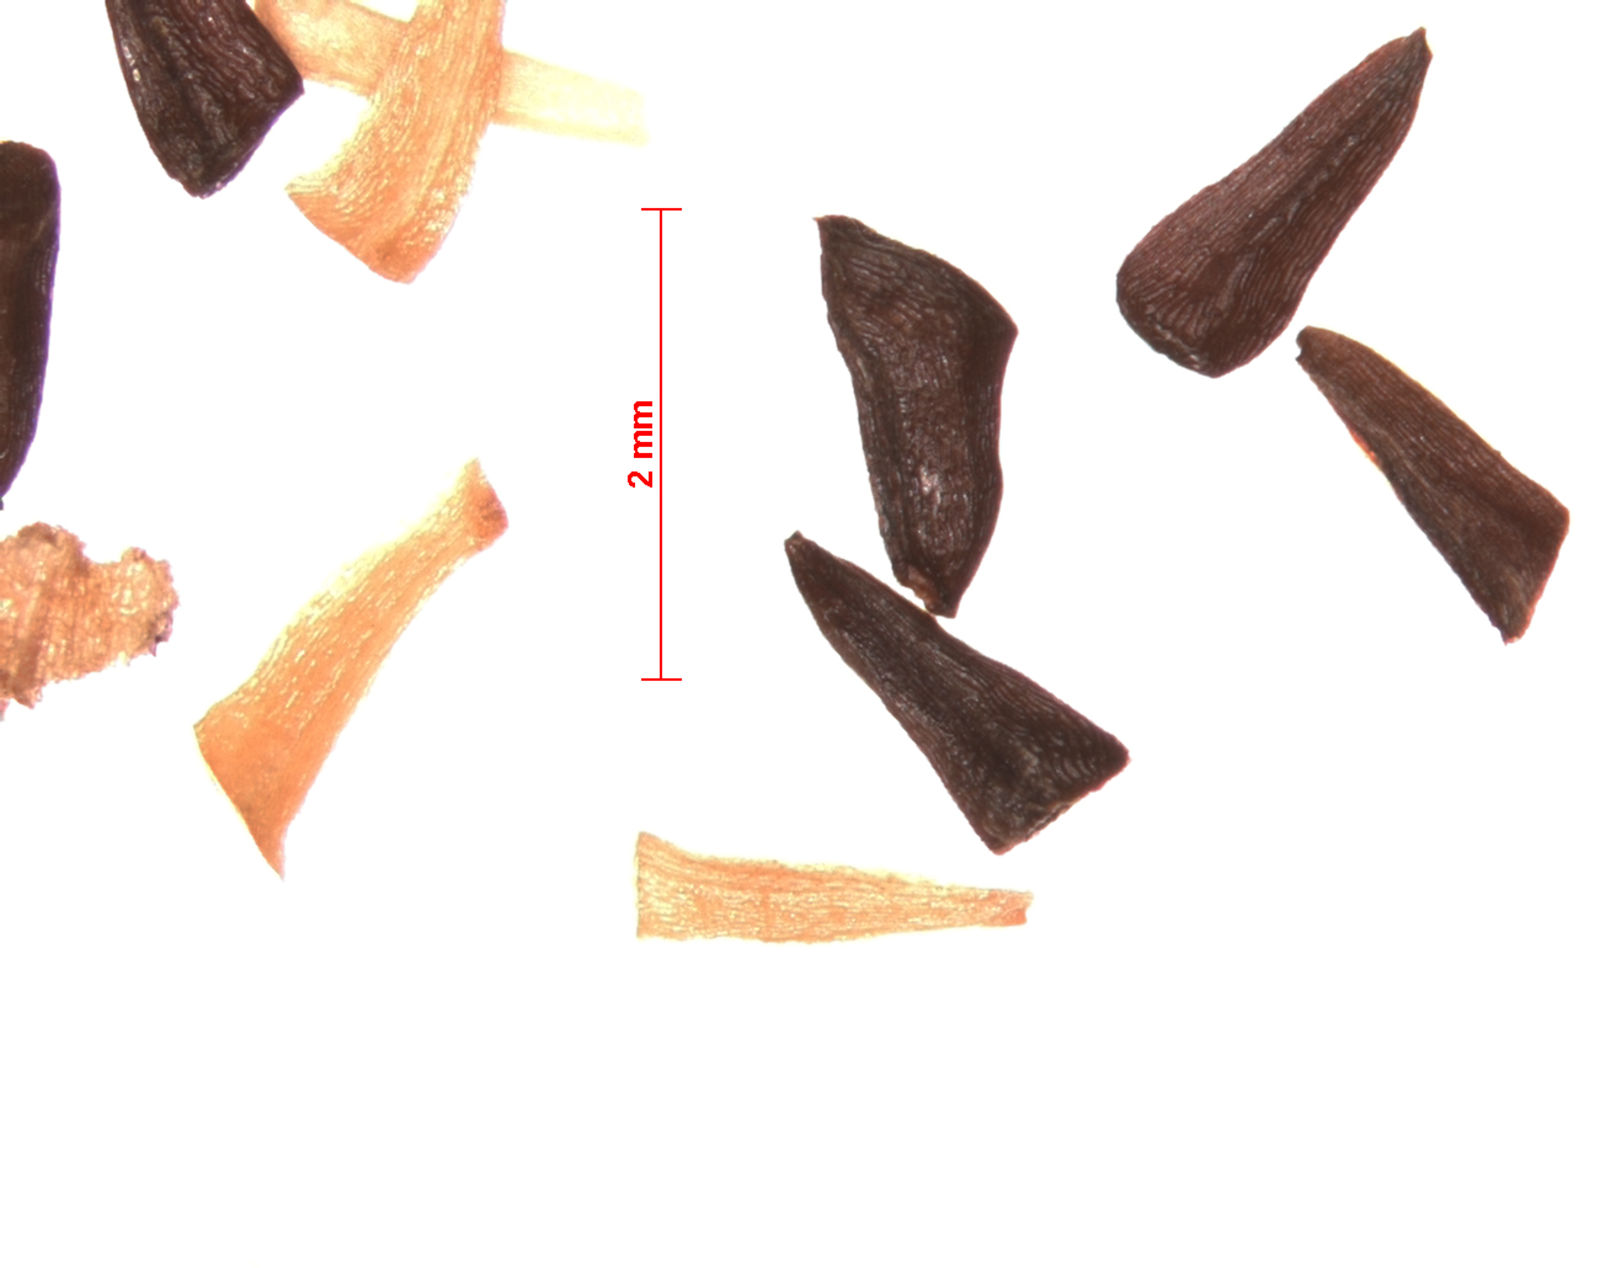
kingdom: Plantae
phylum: Tracheophyta
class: Magnoliopsida
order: Myrtales
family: Myrtaceae
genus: Melaleuca
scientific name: Melaleuca accedens
